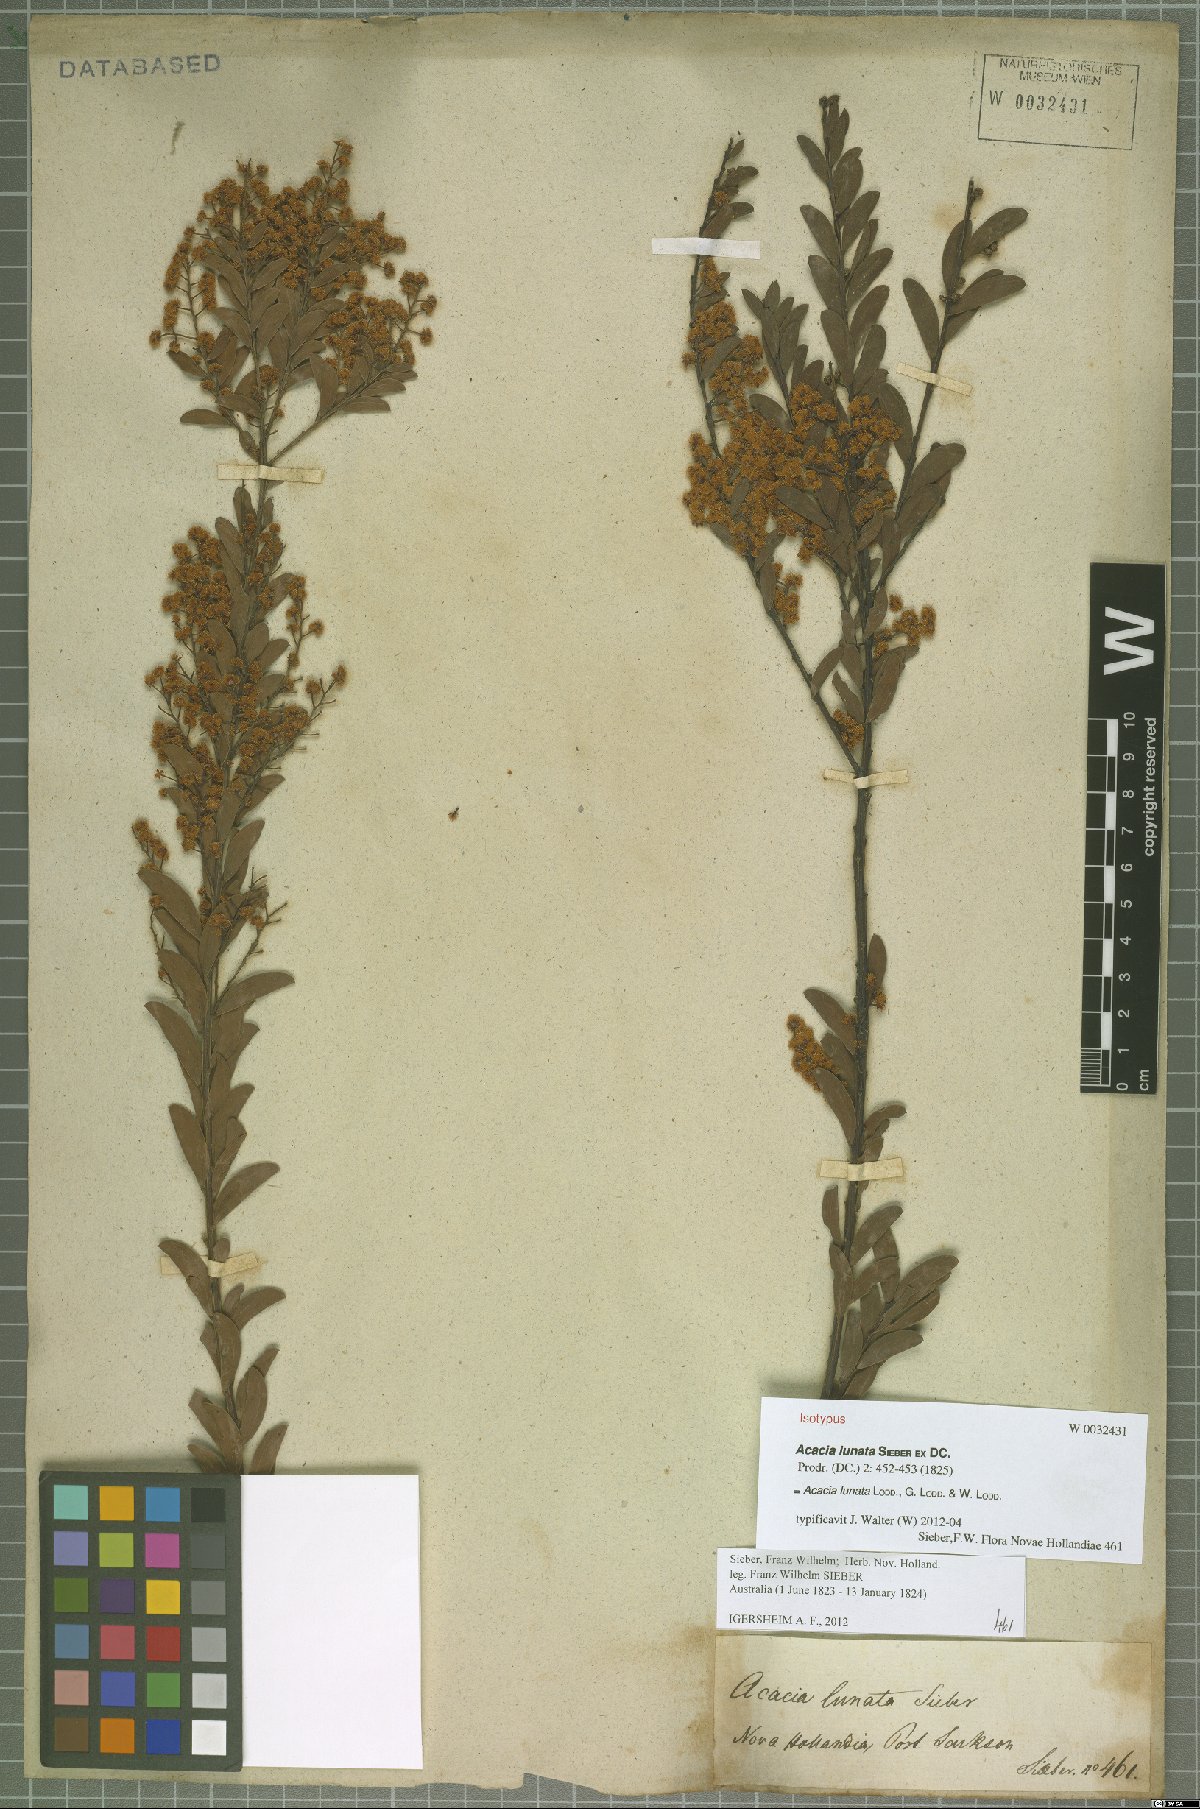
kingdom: Plantae
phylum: Tracheophyta
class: Magnoliopsida
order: Fabales
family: Fabaceae
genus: Acacia
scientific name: Acacia lunata
